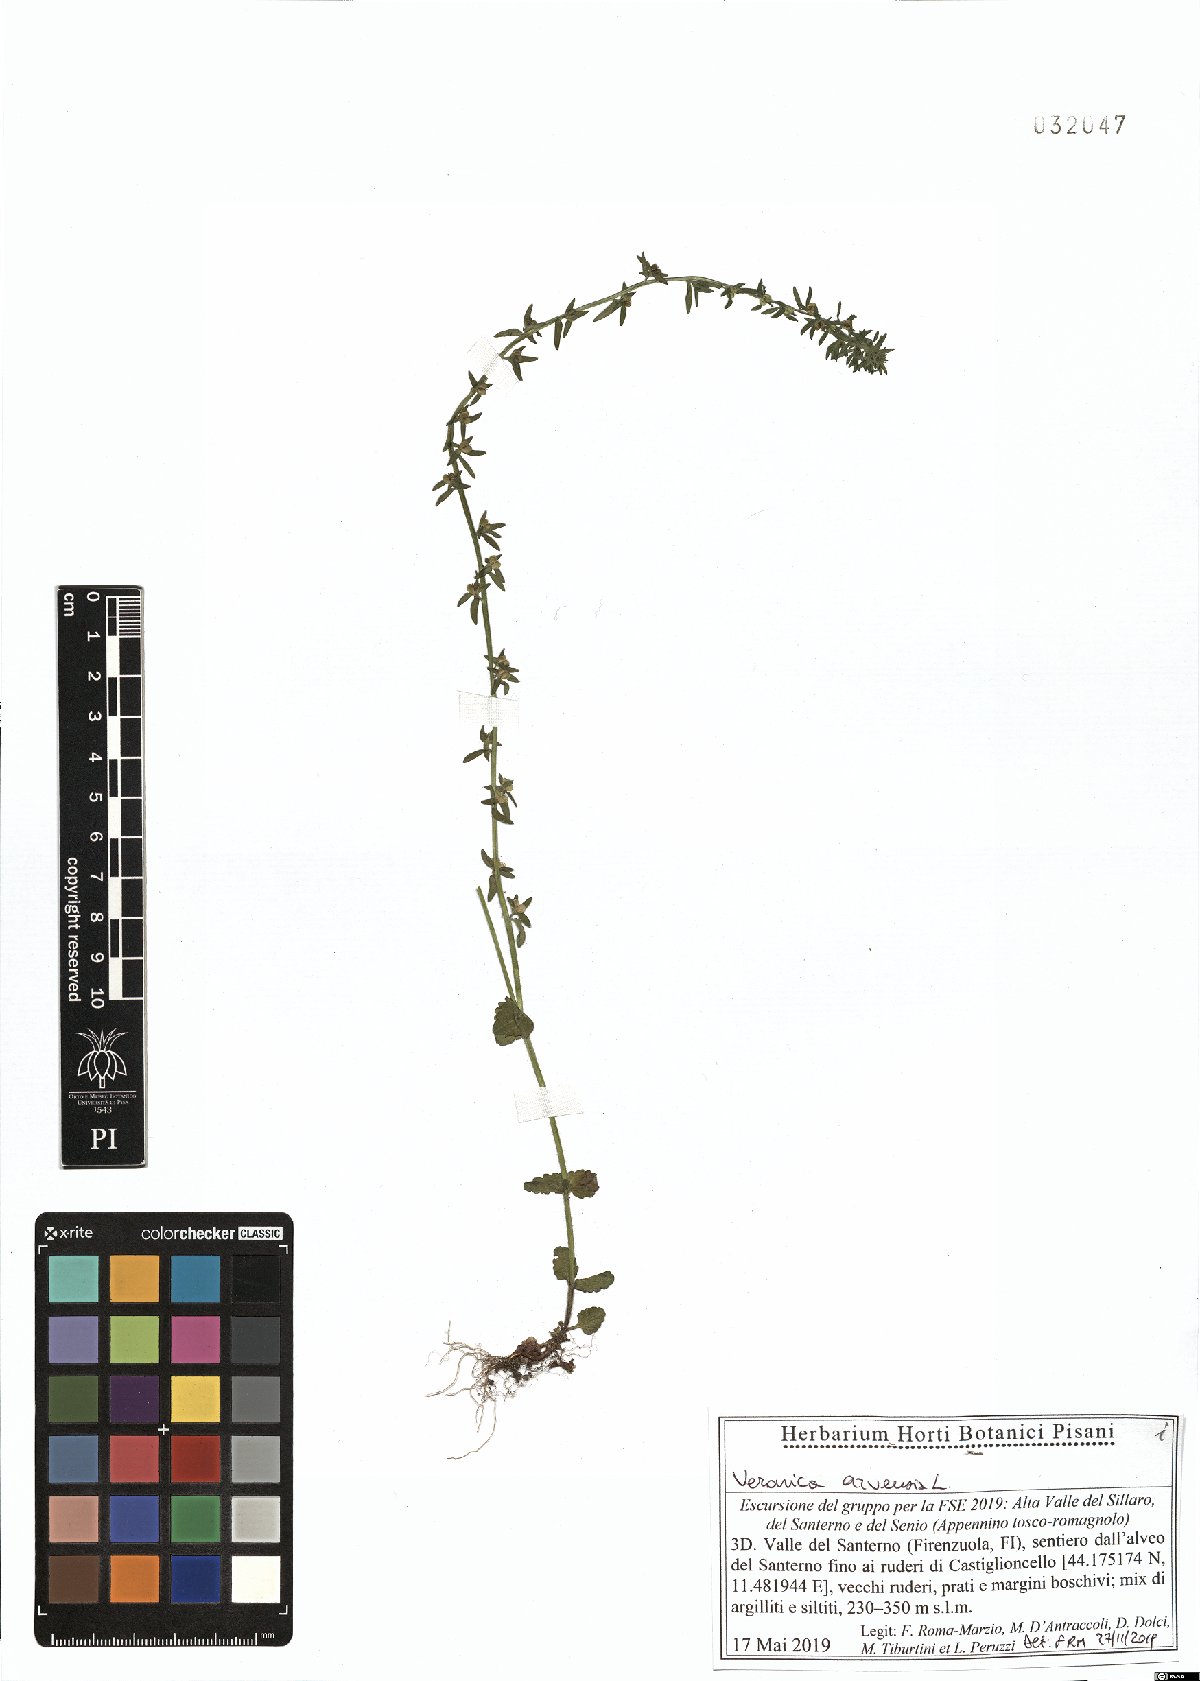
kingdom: Plantae
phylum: Tracheophyta
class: Magnoliopsida
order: Lamiales
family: Plantaginaceae
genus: Veronica
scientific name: Veronica arvensis
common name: Corn speedwell
